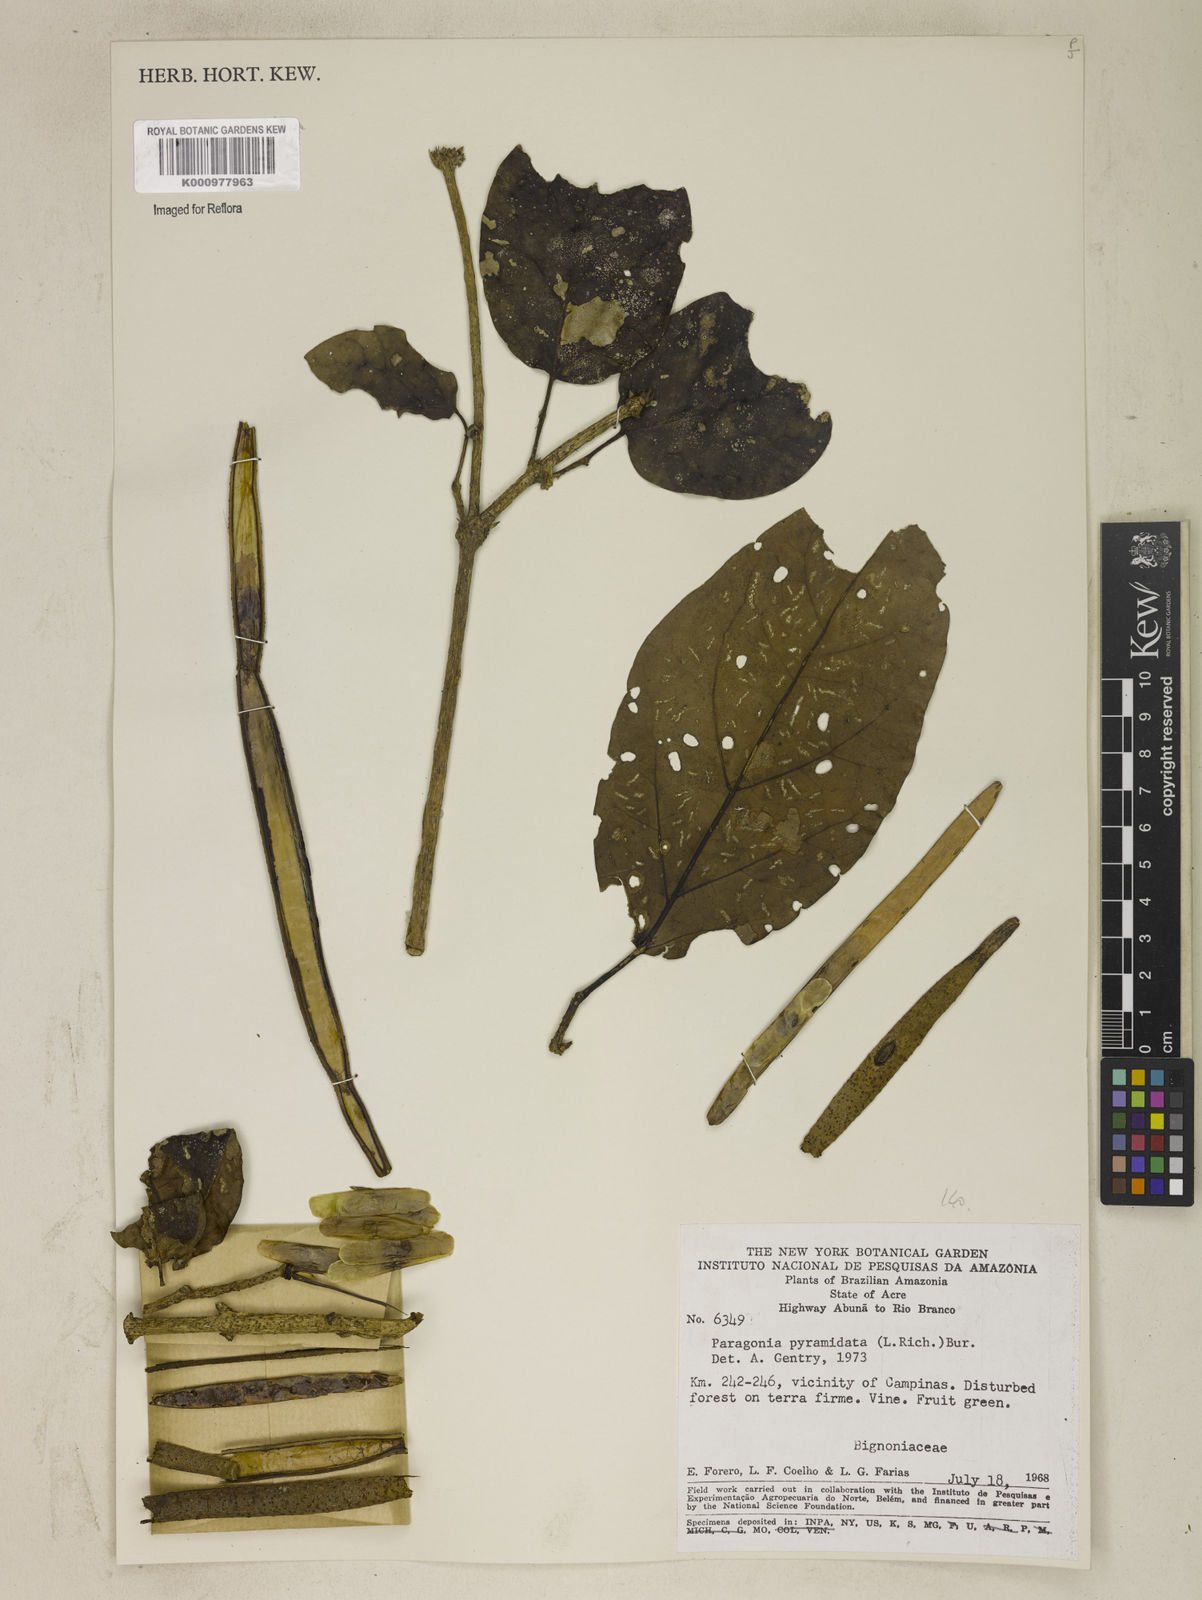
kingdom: Plantae
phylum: Tracheophyta
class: Magnoliopsida
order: Lamiales
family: Bignoniaceae
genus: Tanaecium
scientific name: Tanaecium pyramidatum
